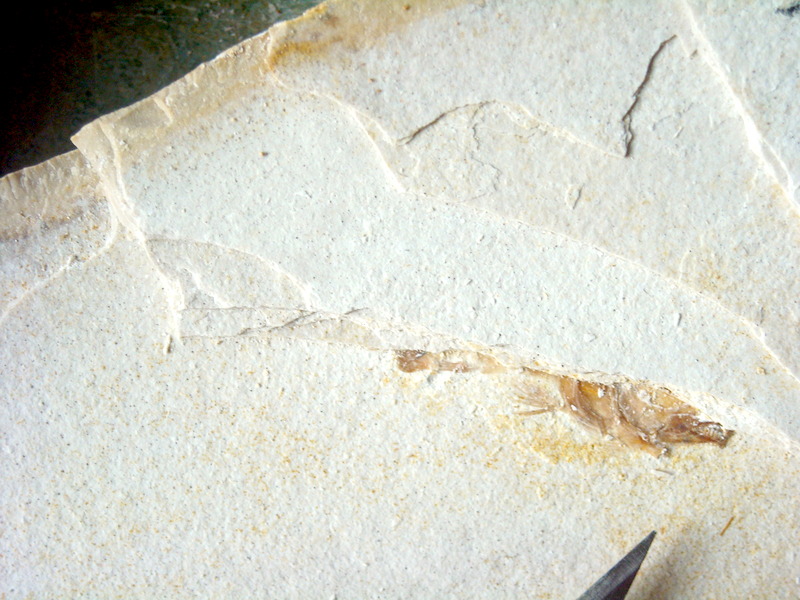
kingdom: Animalia
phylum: Chordata
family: Macrosemiidae
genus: Notagogus
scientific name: Notagogus denticulatus
